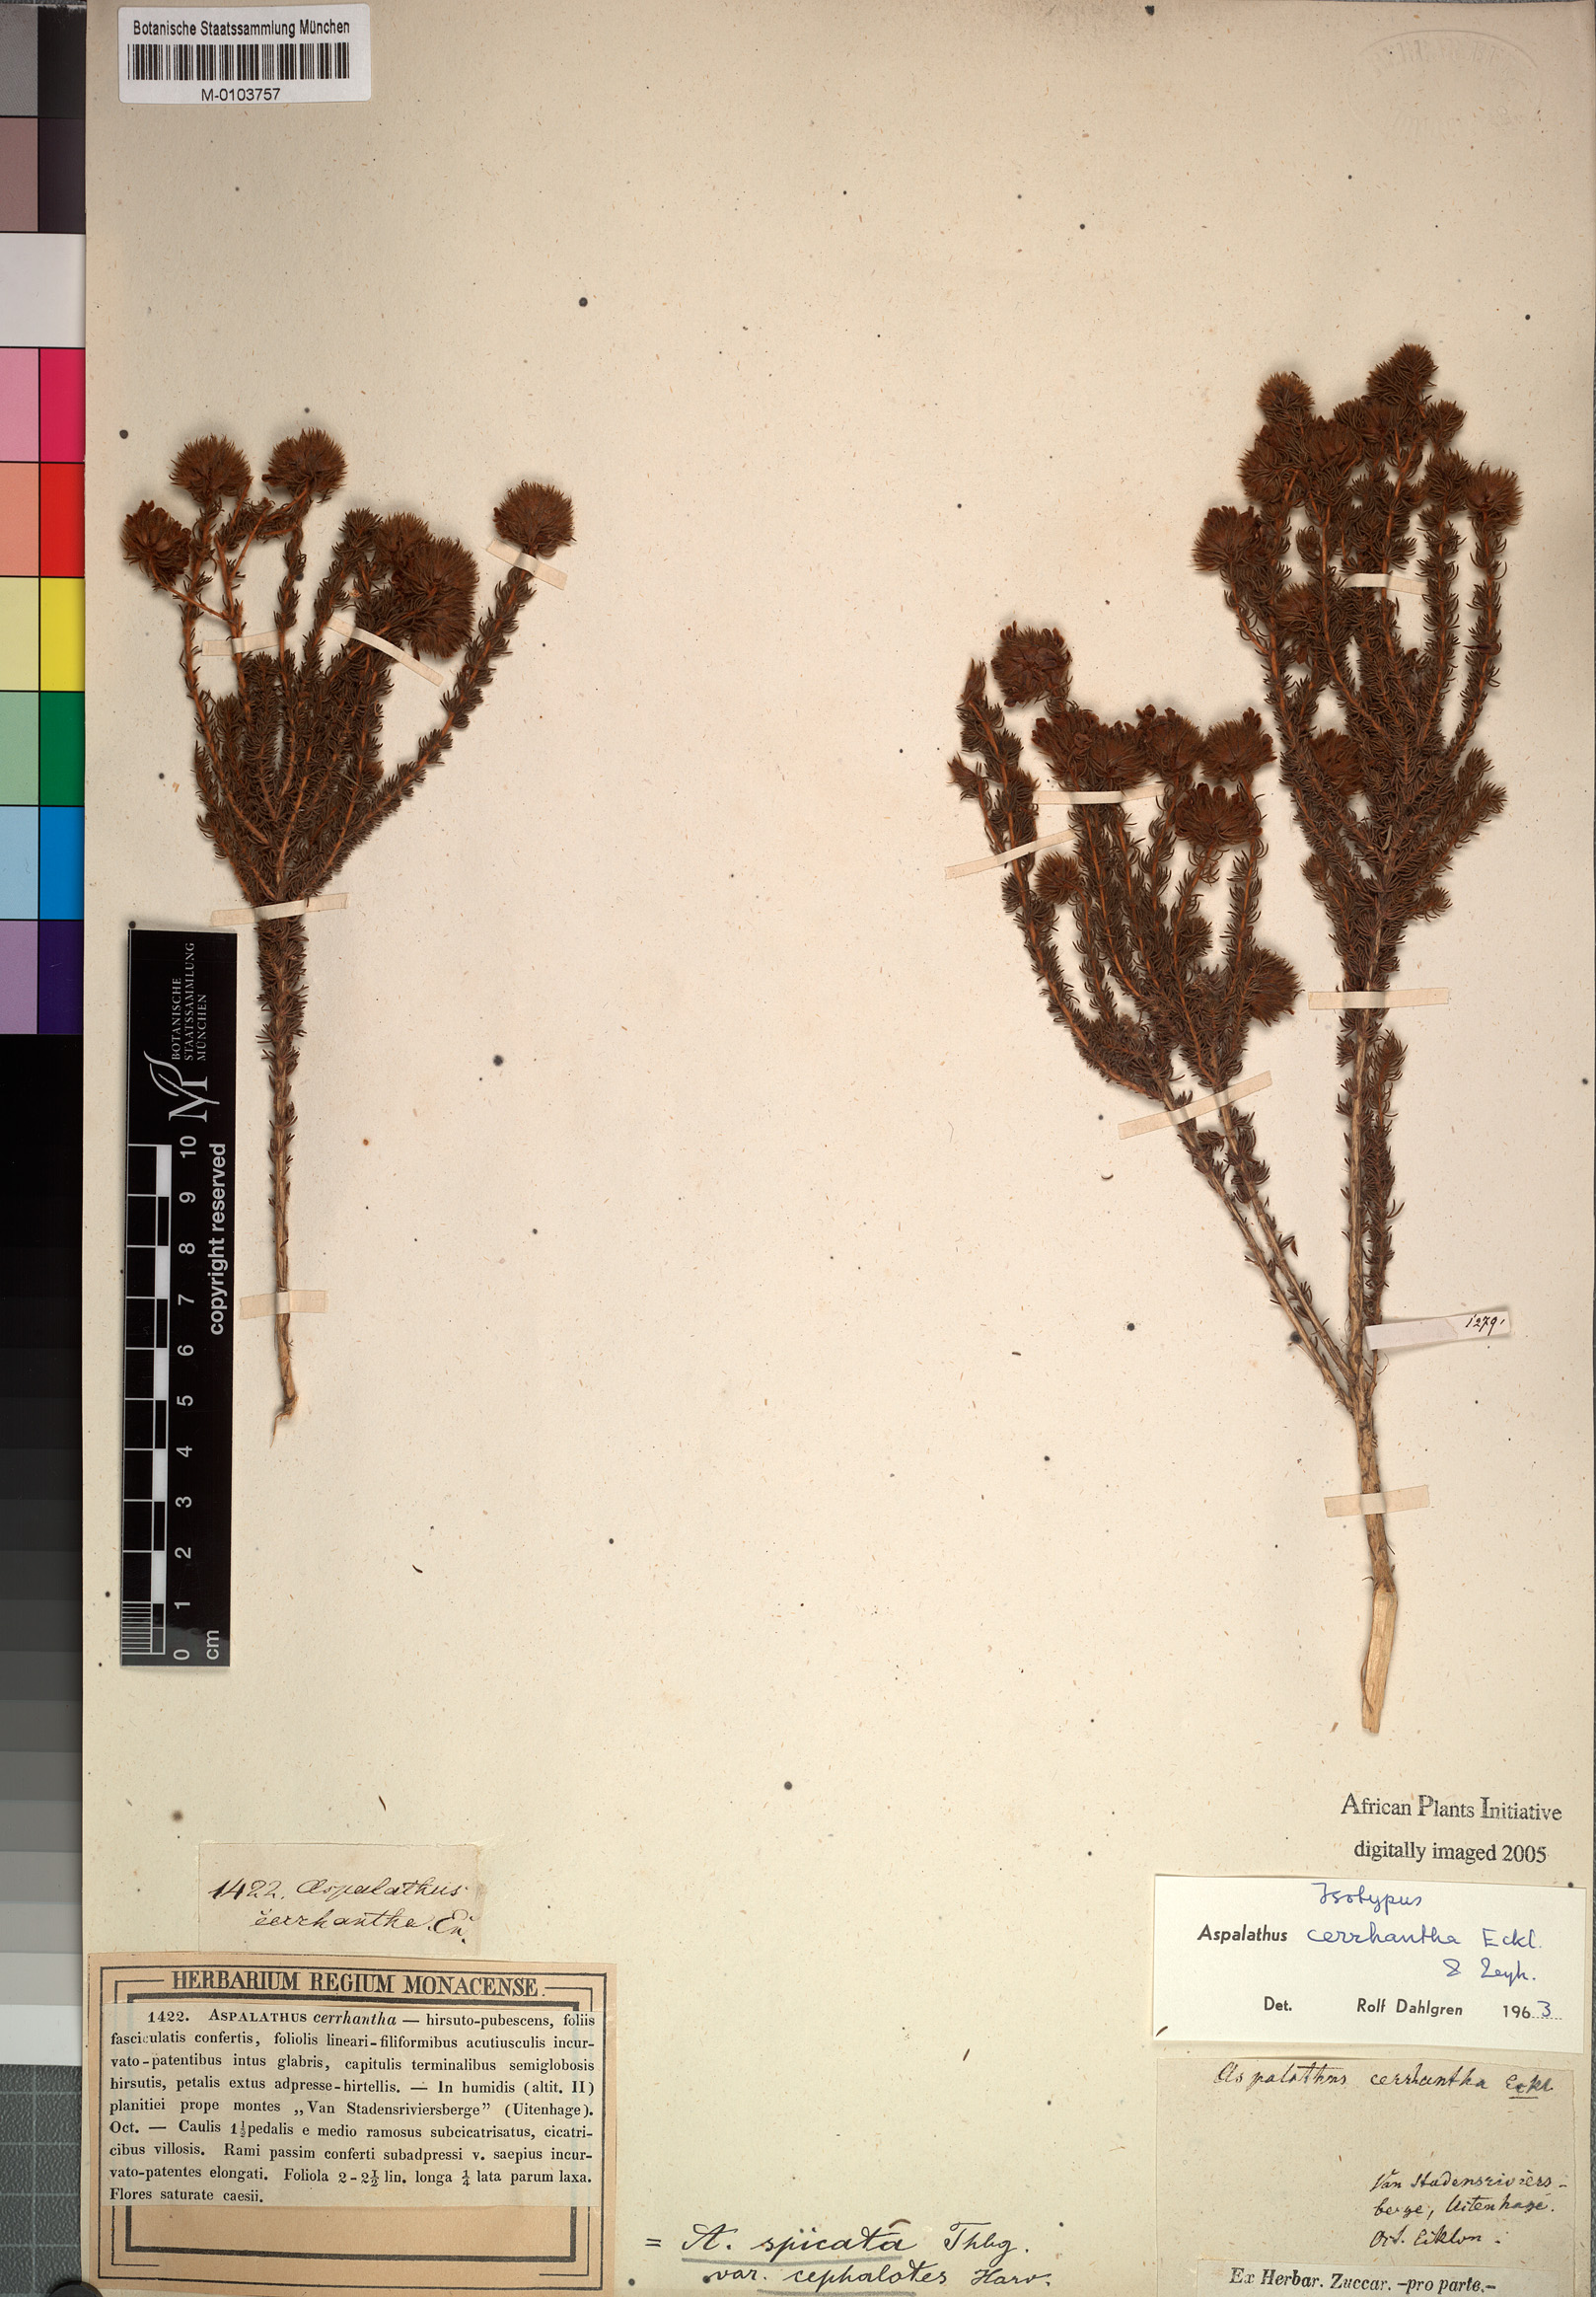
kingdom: Plantae
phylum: Tracheophyta
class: Magnoliopsida
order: Fabales
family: Fabaceae
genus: Aspalathus
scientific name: Aspalathus cerrhantha
